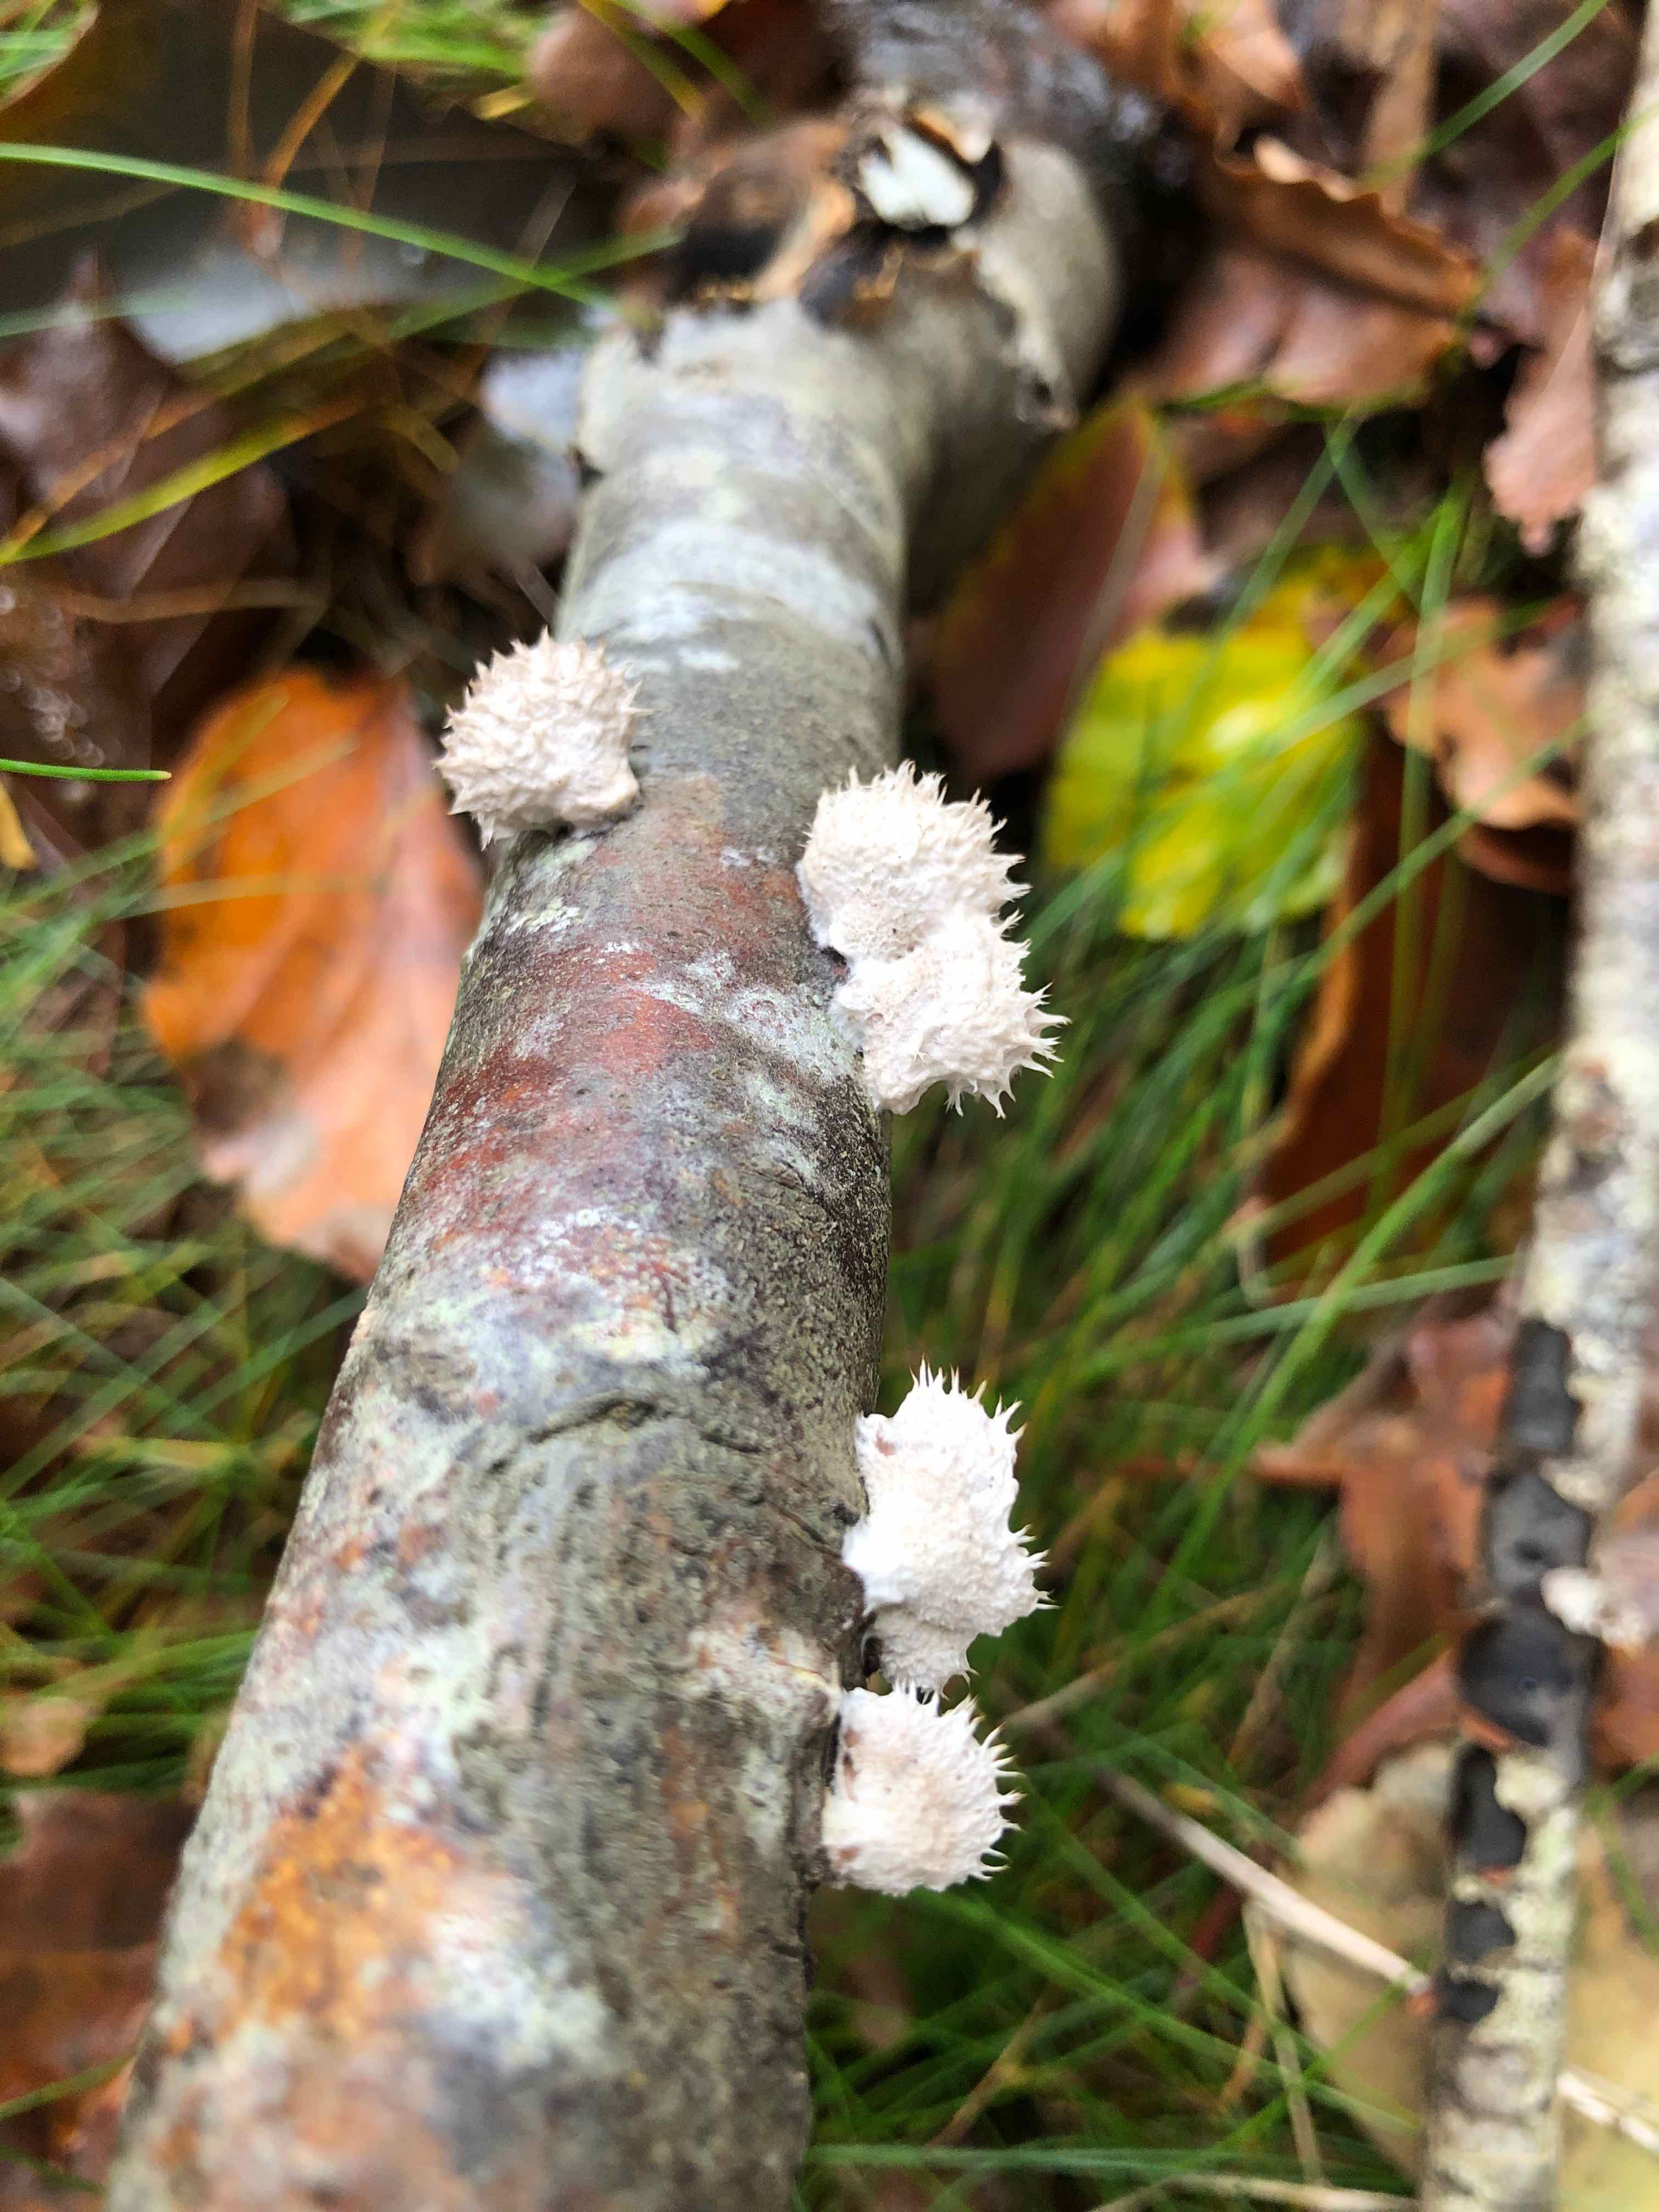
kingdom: Fungi
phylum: Basidiomycota
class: Agaricomycetes
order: Agaricales
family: Schizophyllaceae
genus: Schizophyllum
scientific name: Schizophyllum commune
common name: kløvblad
